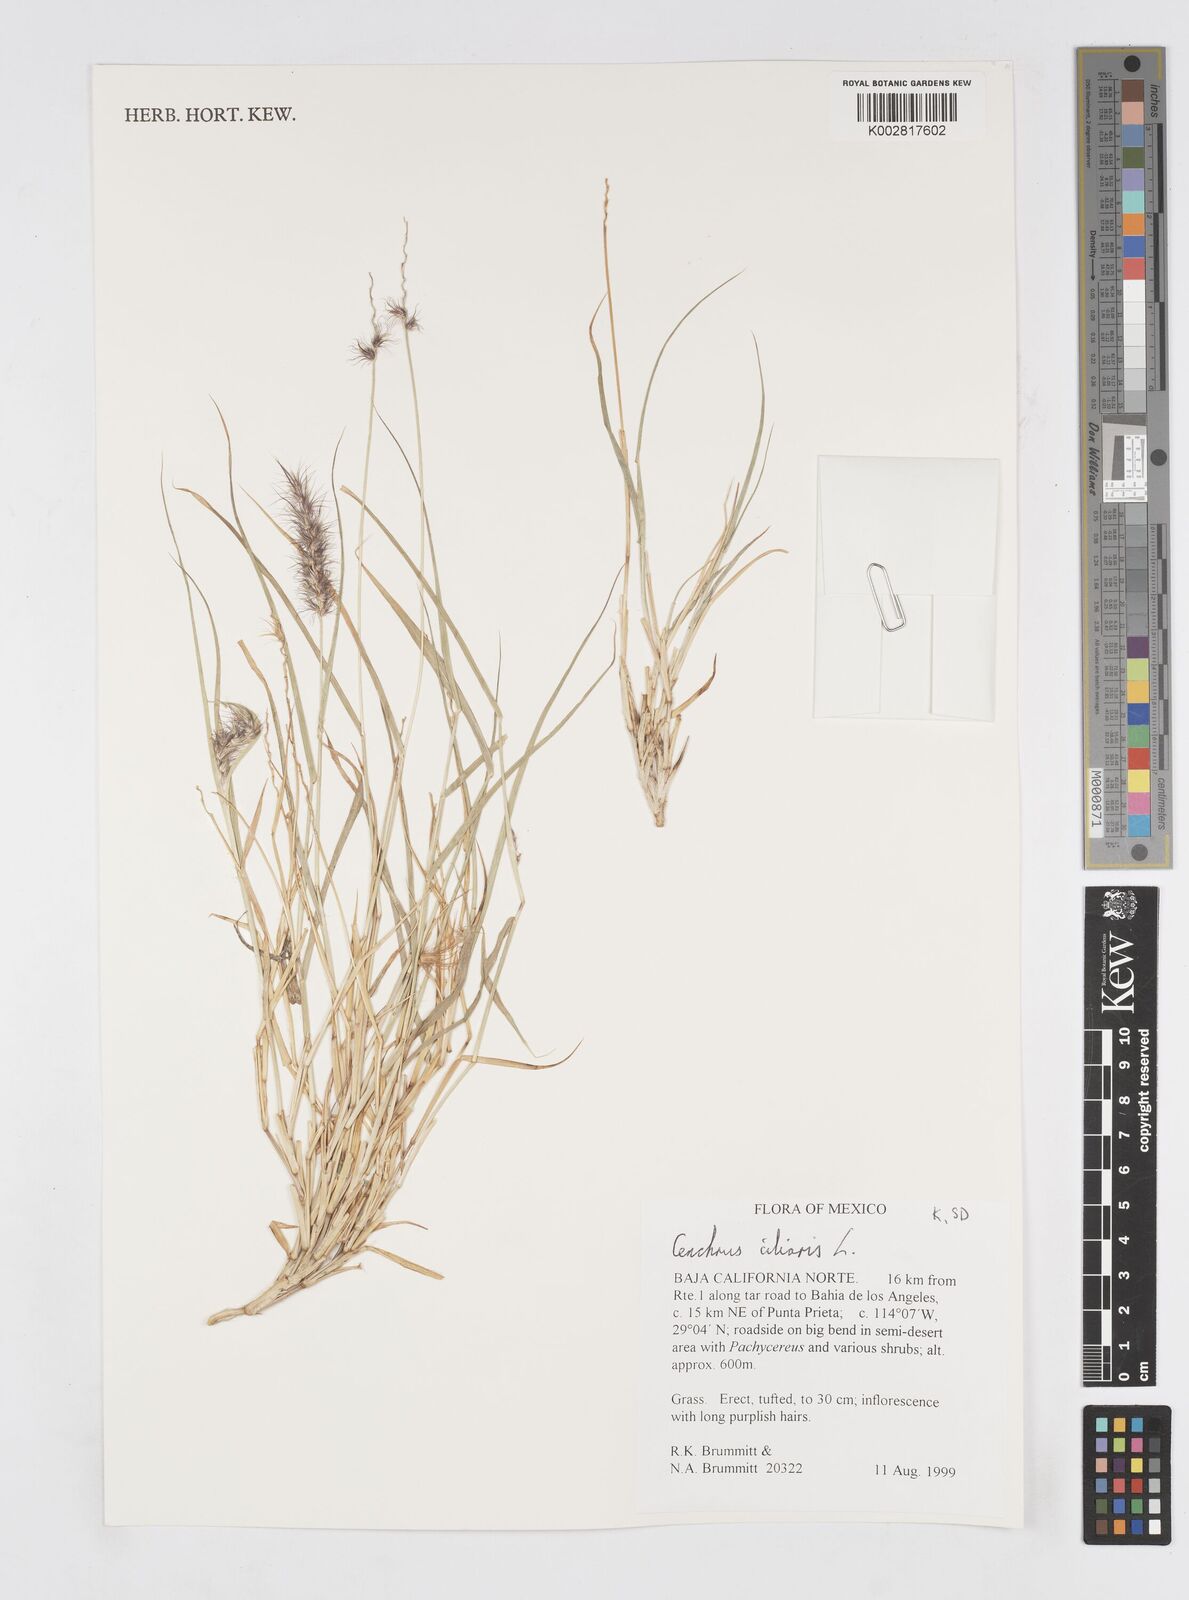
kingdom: Plantae
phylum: Tracheophyta
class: Liliopsida
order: Poales
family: Poaceae
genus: Cenchrus
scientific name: Cenchrus ciliaris
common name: Buffelgrass
